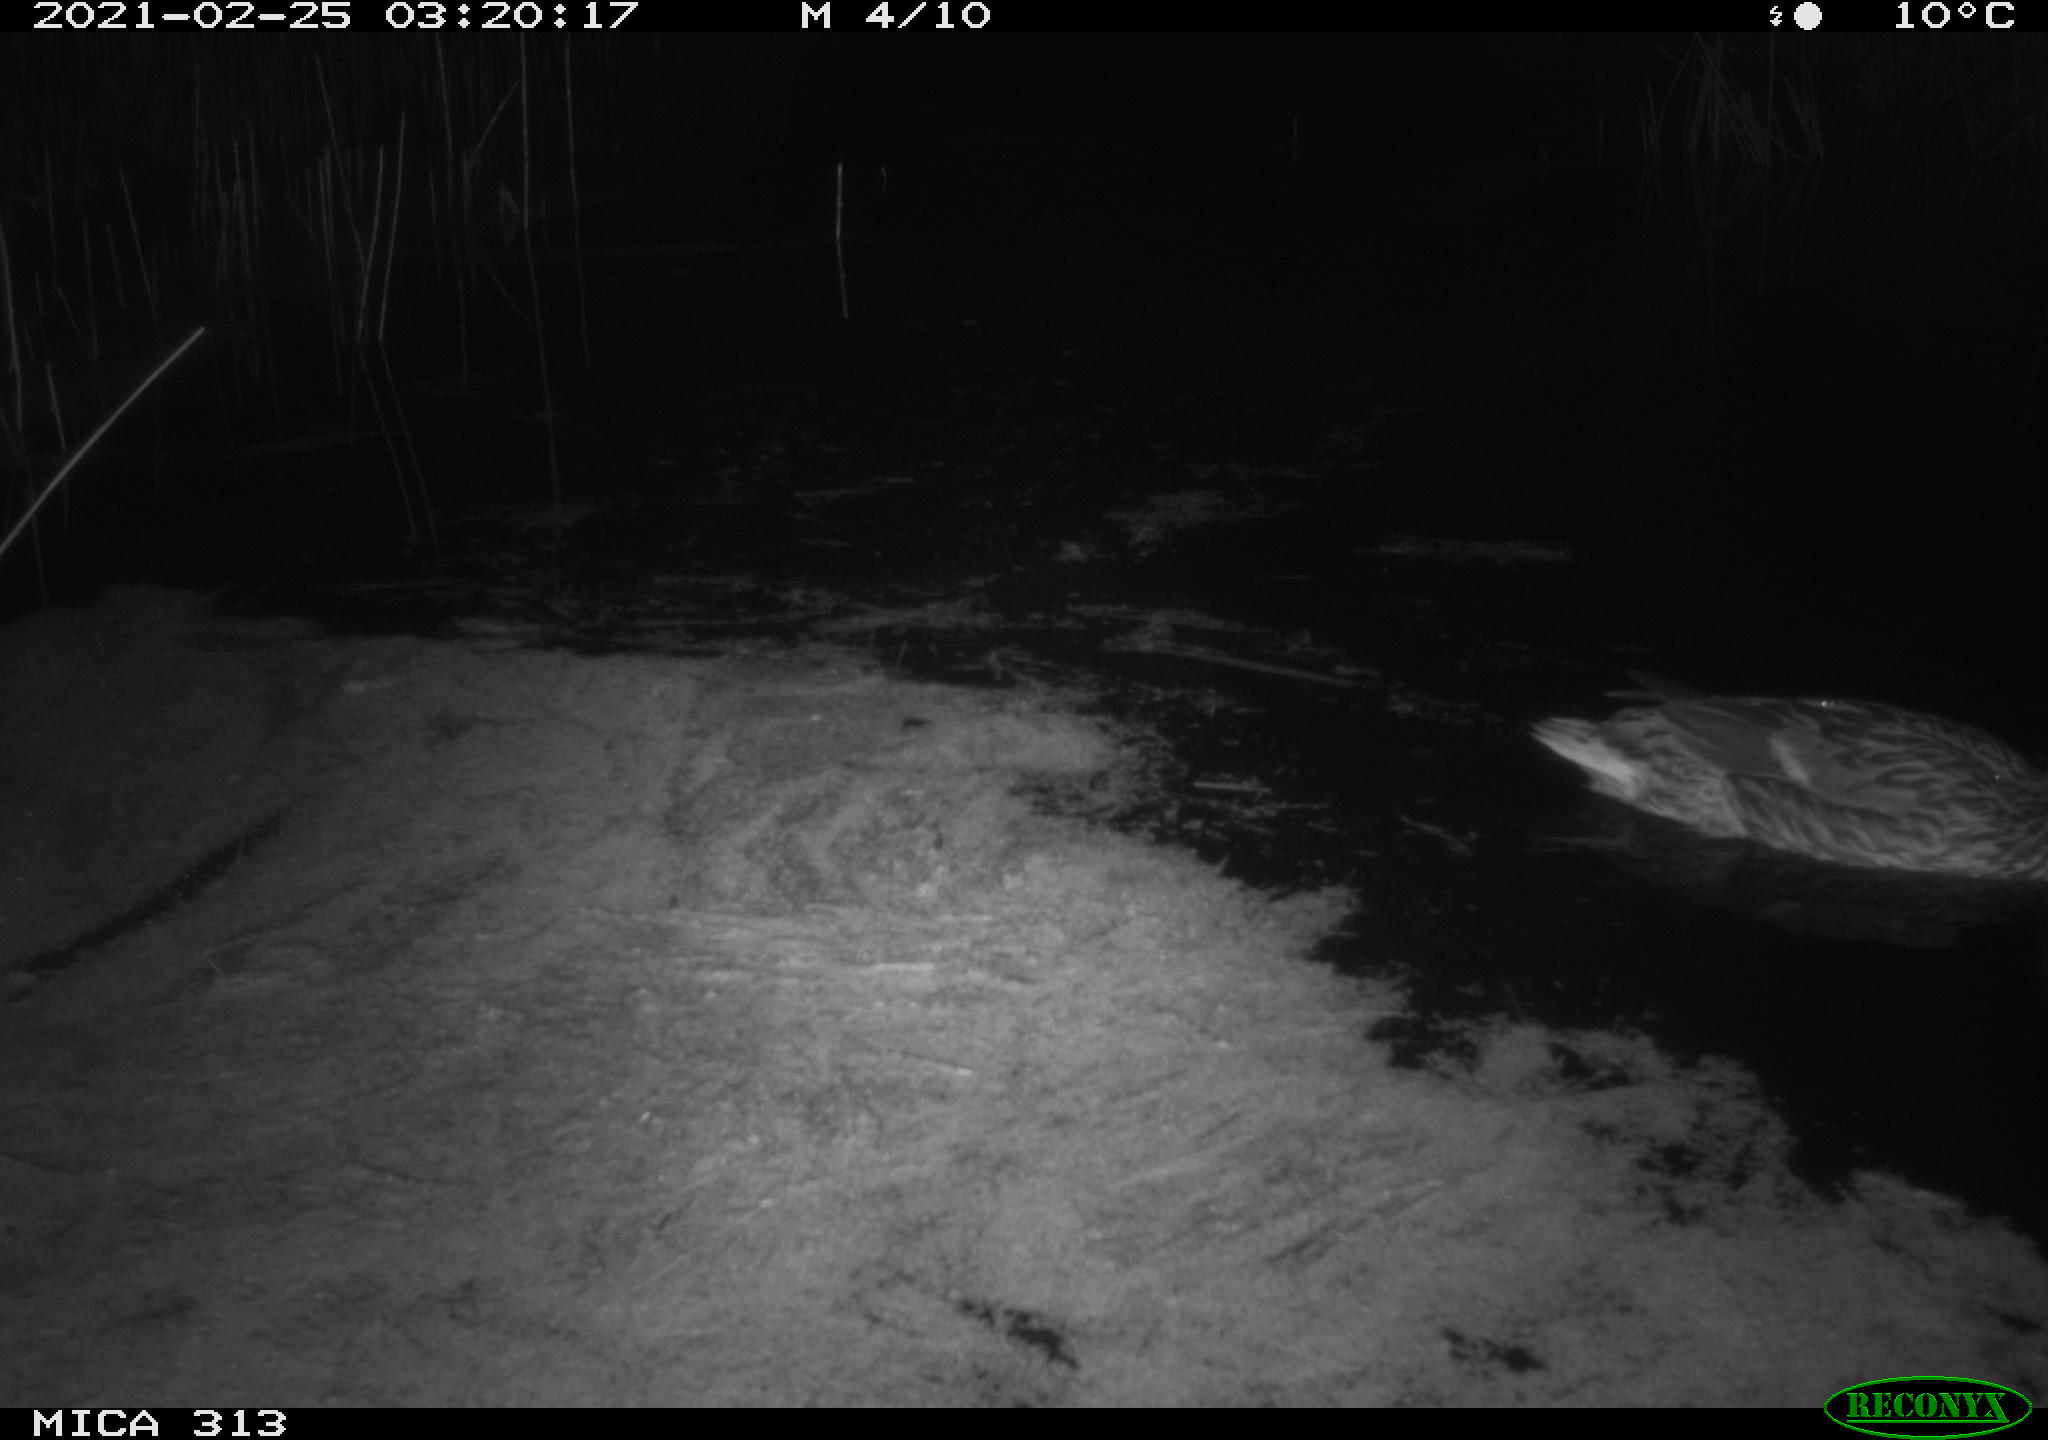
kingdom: Animalia
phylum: Chordata
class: Aves
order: Anseriformes
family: Anatidae
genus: Anas
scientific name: Anas
